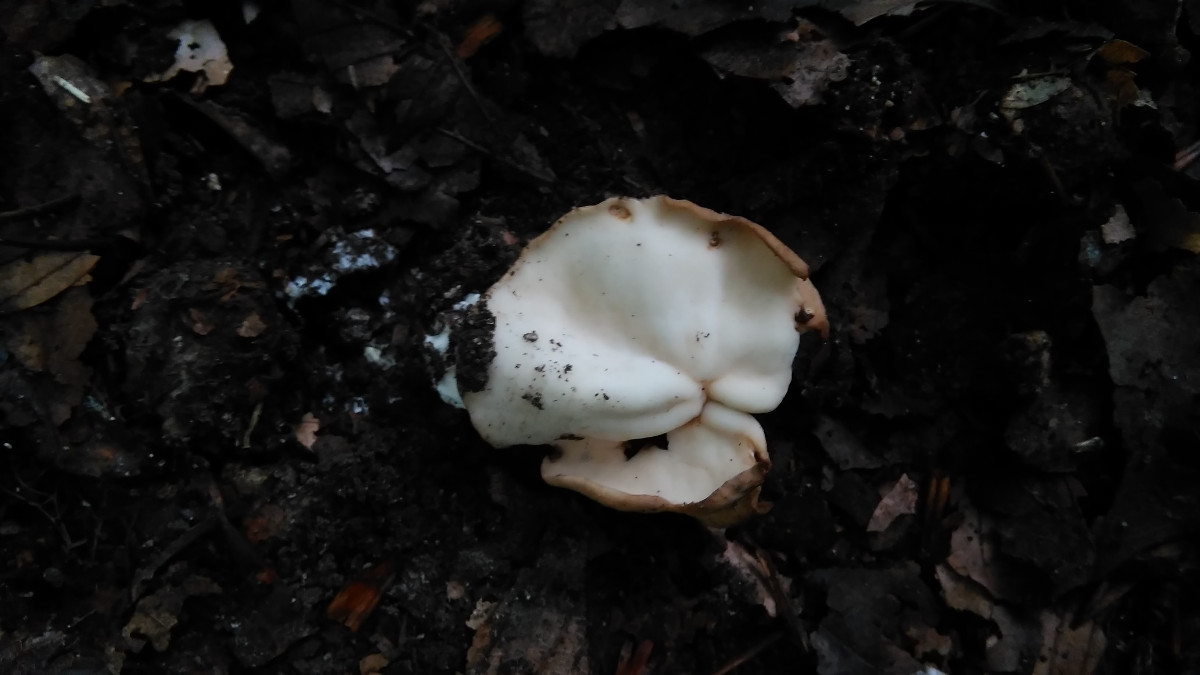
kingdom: Fungi
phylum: Ascomycota
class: Pezizomycetes
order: Pezizales
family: Helvellaceae
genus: Helvella
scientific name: Helvella crispa
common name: kruset foldhat
